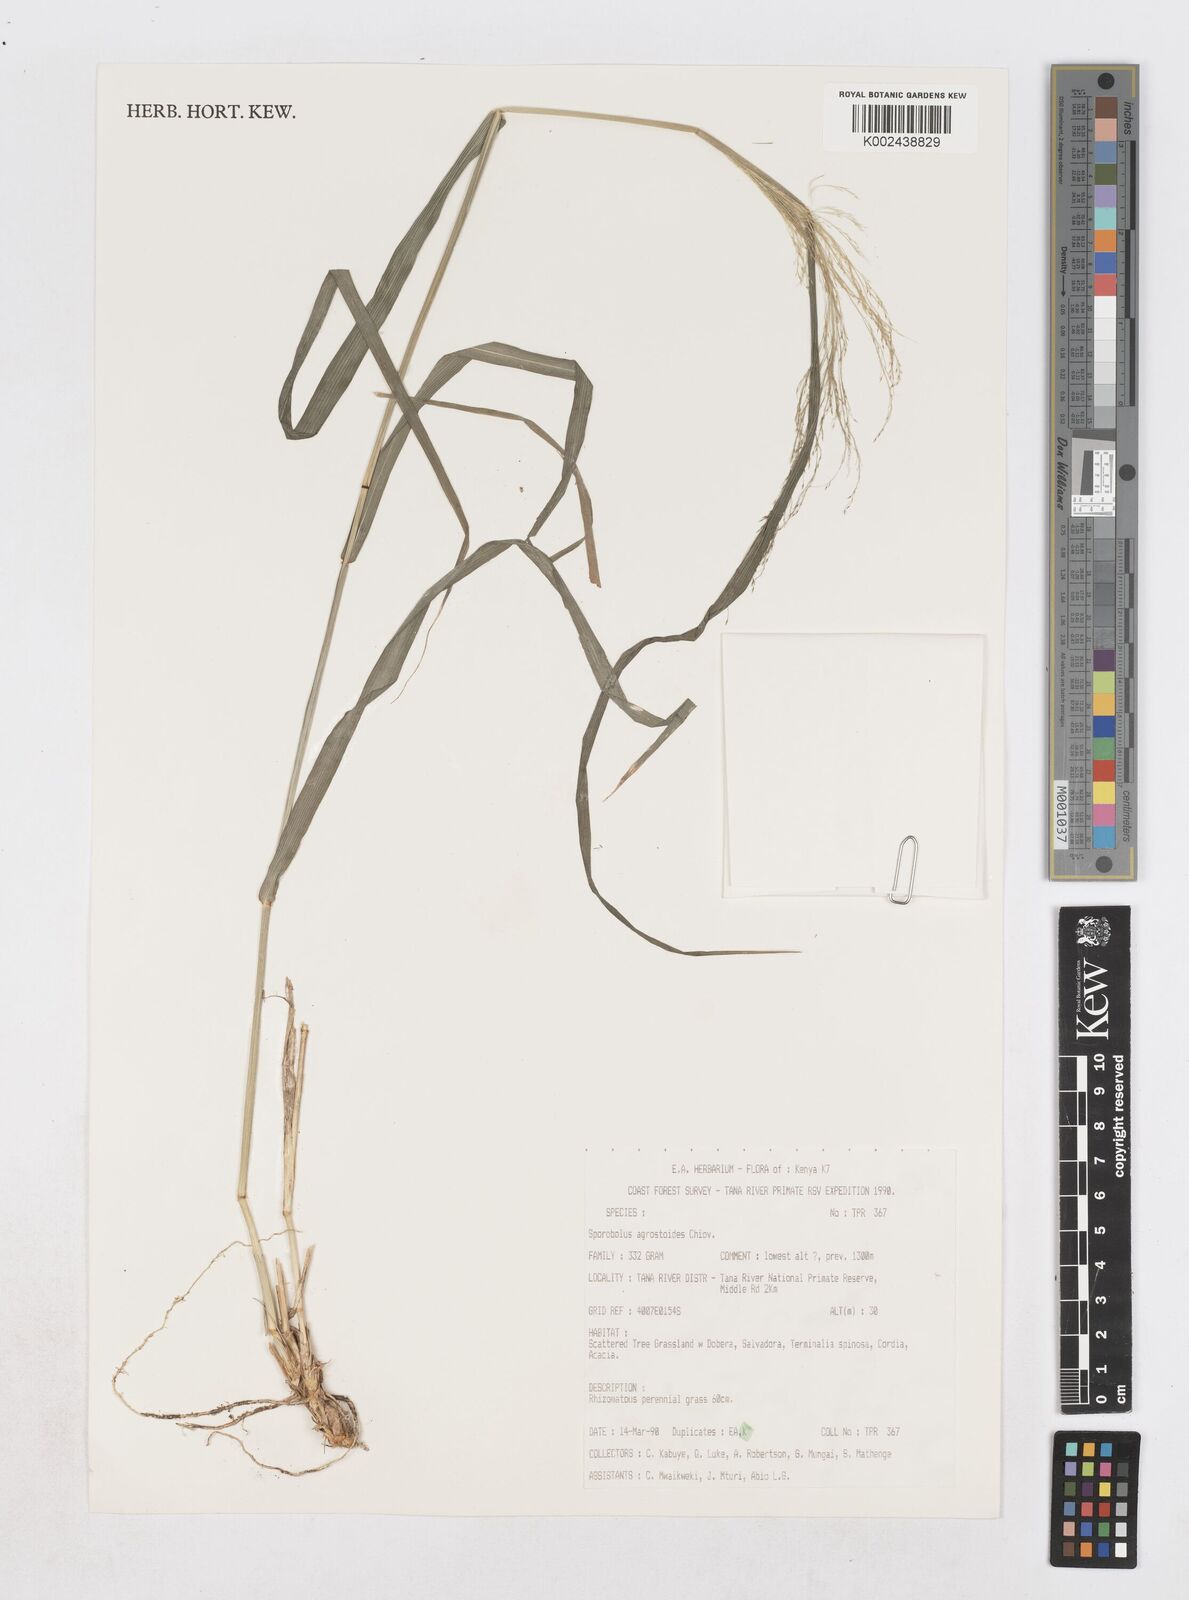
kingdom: Plantae
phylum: Tracheophyta
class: Liliopsida
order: Poales
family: Poaceae
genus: Sporobolus
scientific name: Sporobolus agrostoides
